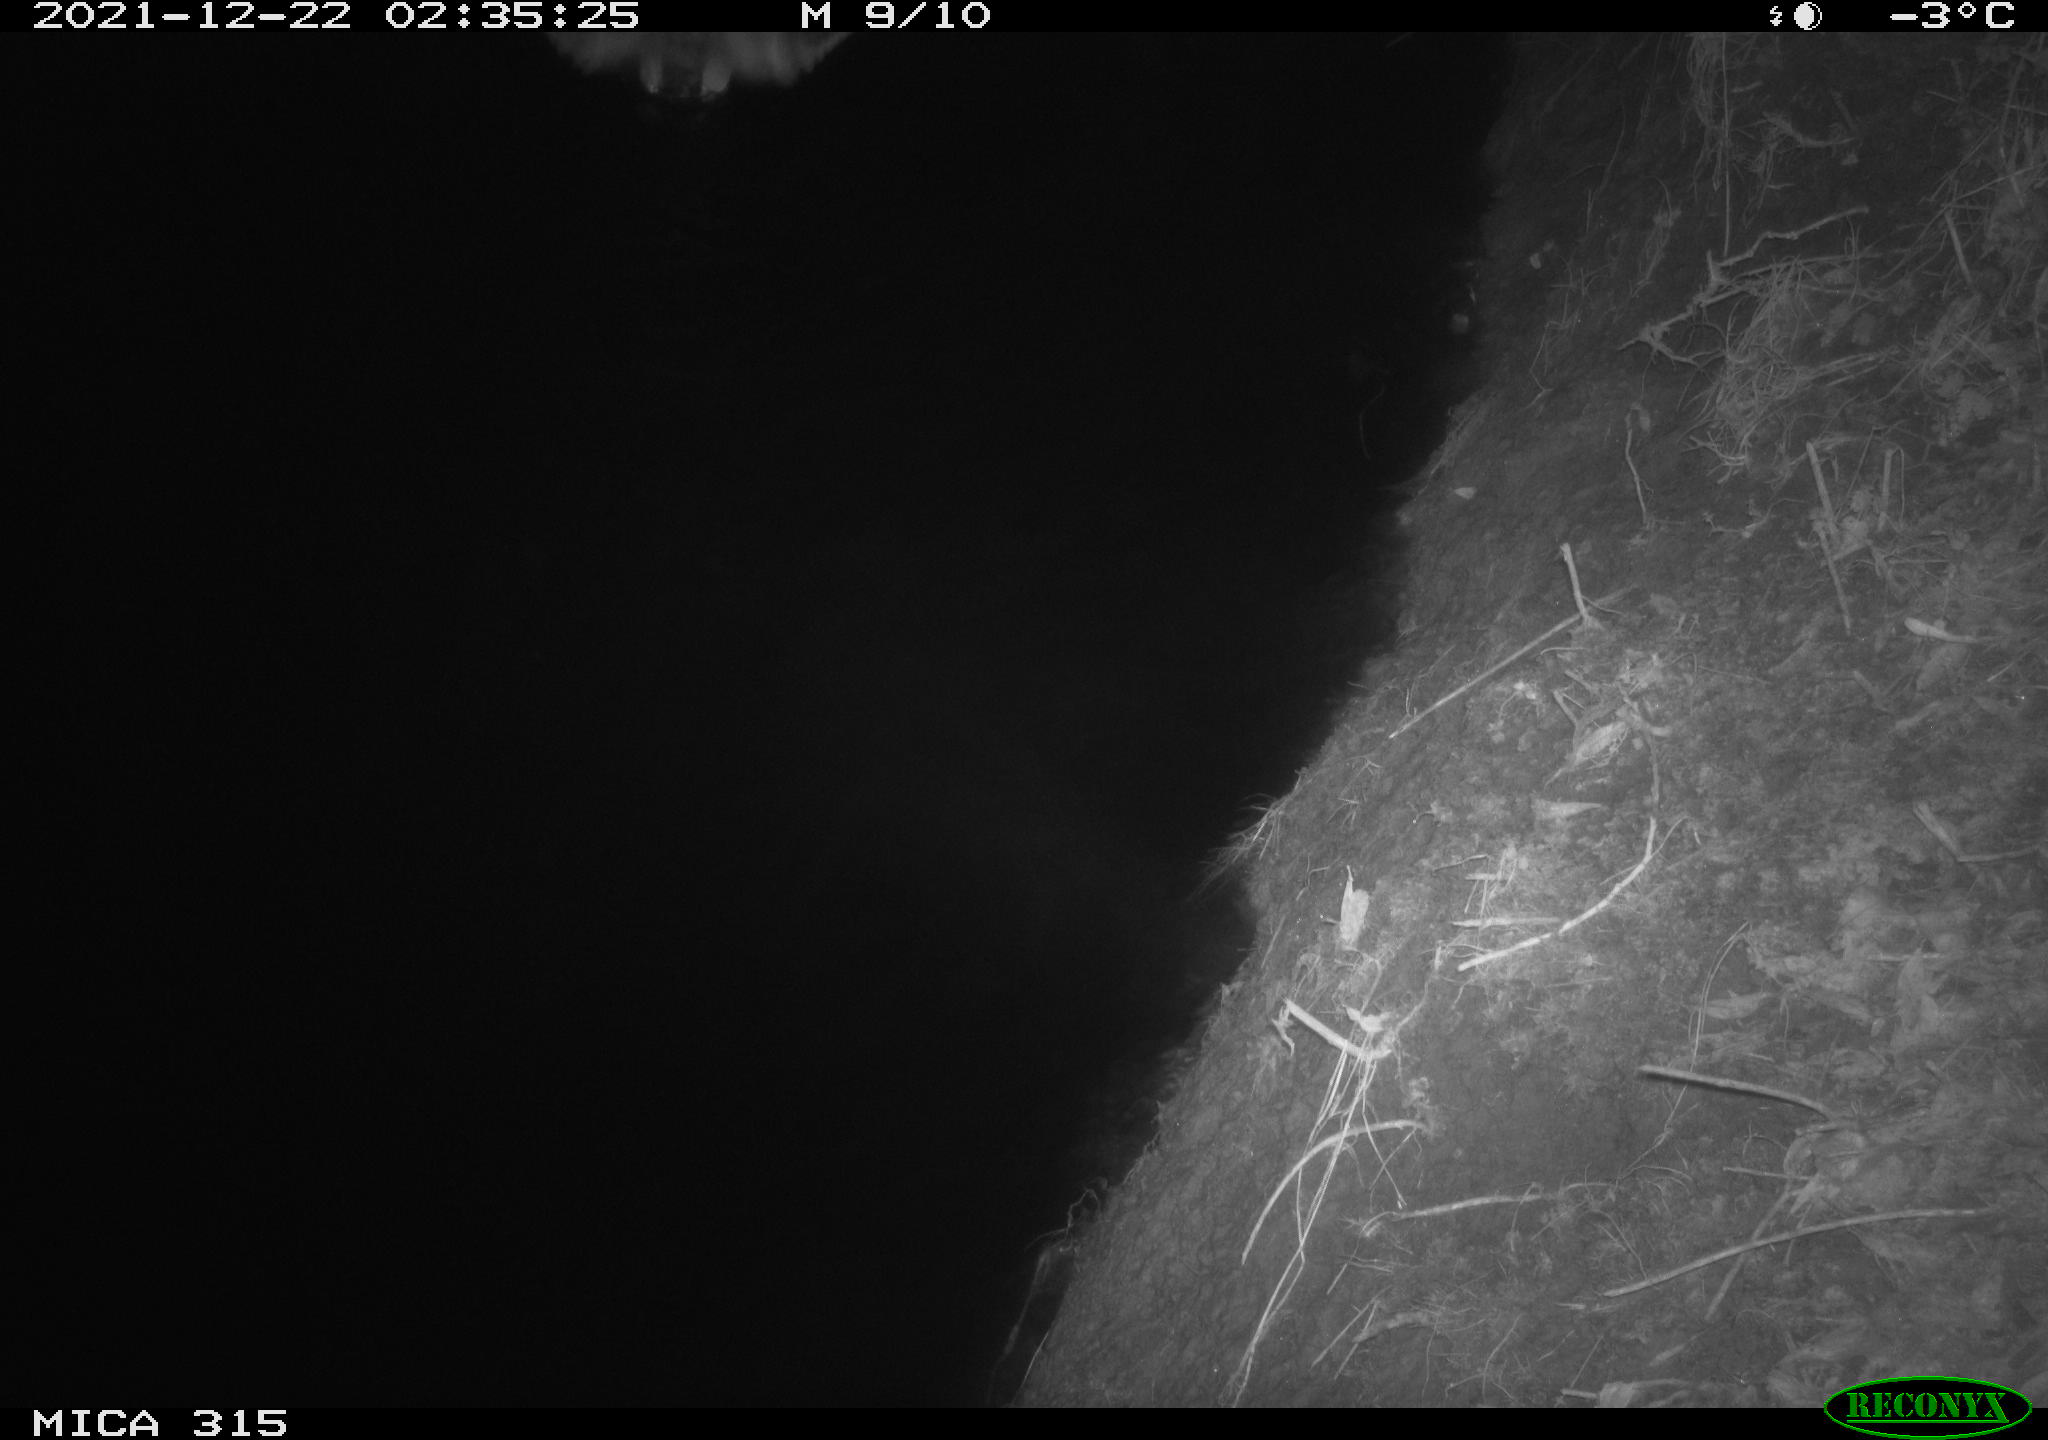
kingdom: Animalia
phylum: Chordata
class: Aves
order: Anseriformes
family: Anatidae
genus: Anas
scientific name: Anas
